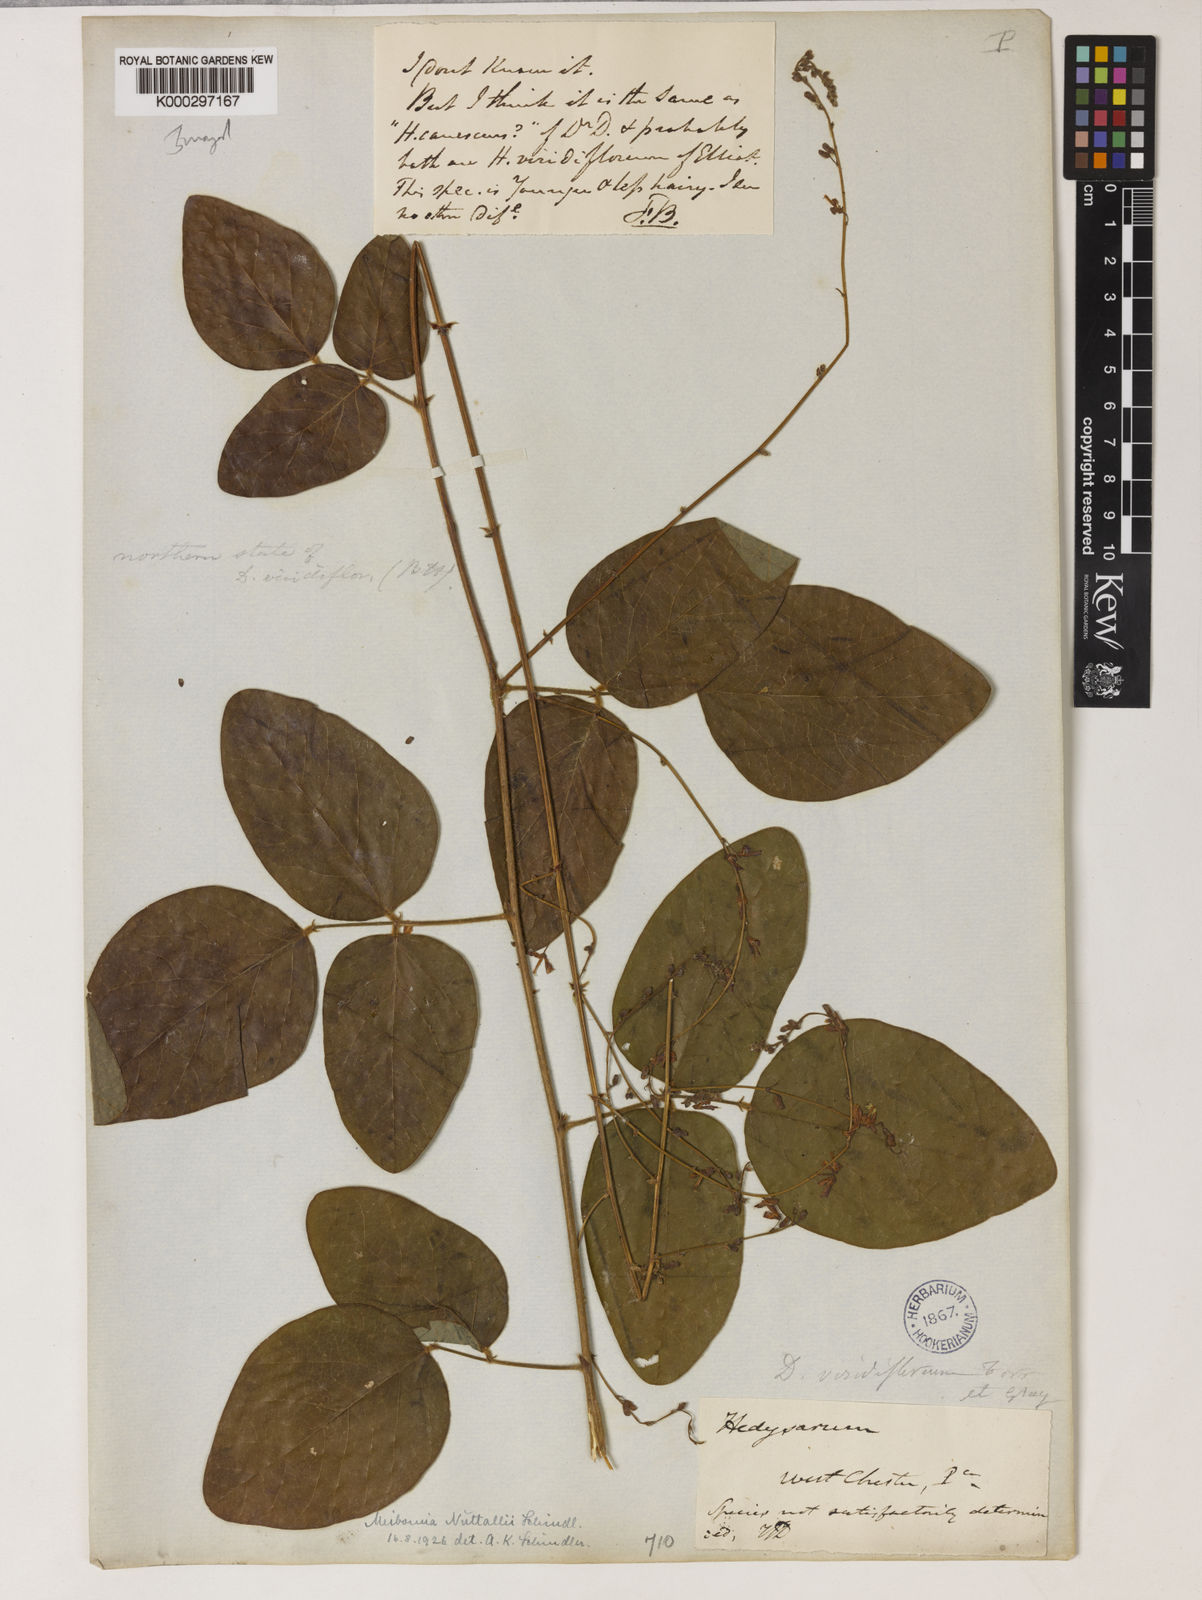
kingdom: Plantae
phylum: Tracheophyta
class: Magnoliopsida
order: Fabales
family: Fabaceae
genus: Desmodium
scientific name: Desmodium nuttallii
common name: Nuttall's tick trefoil
